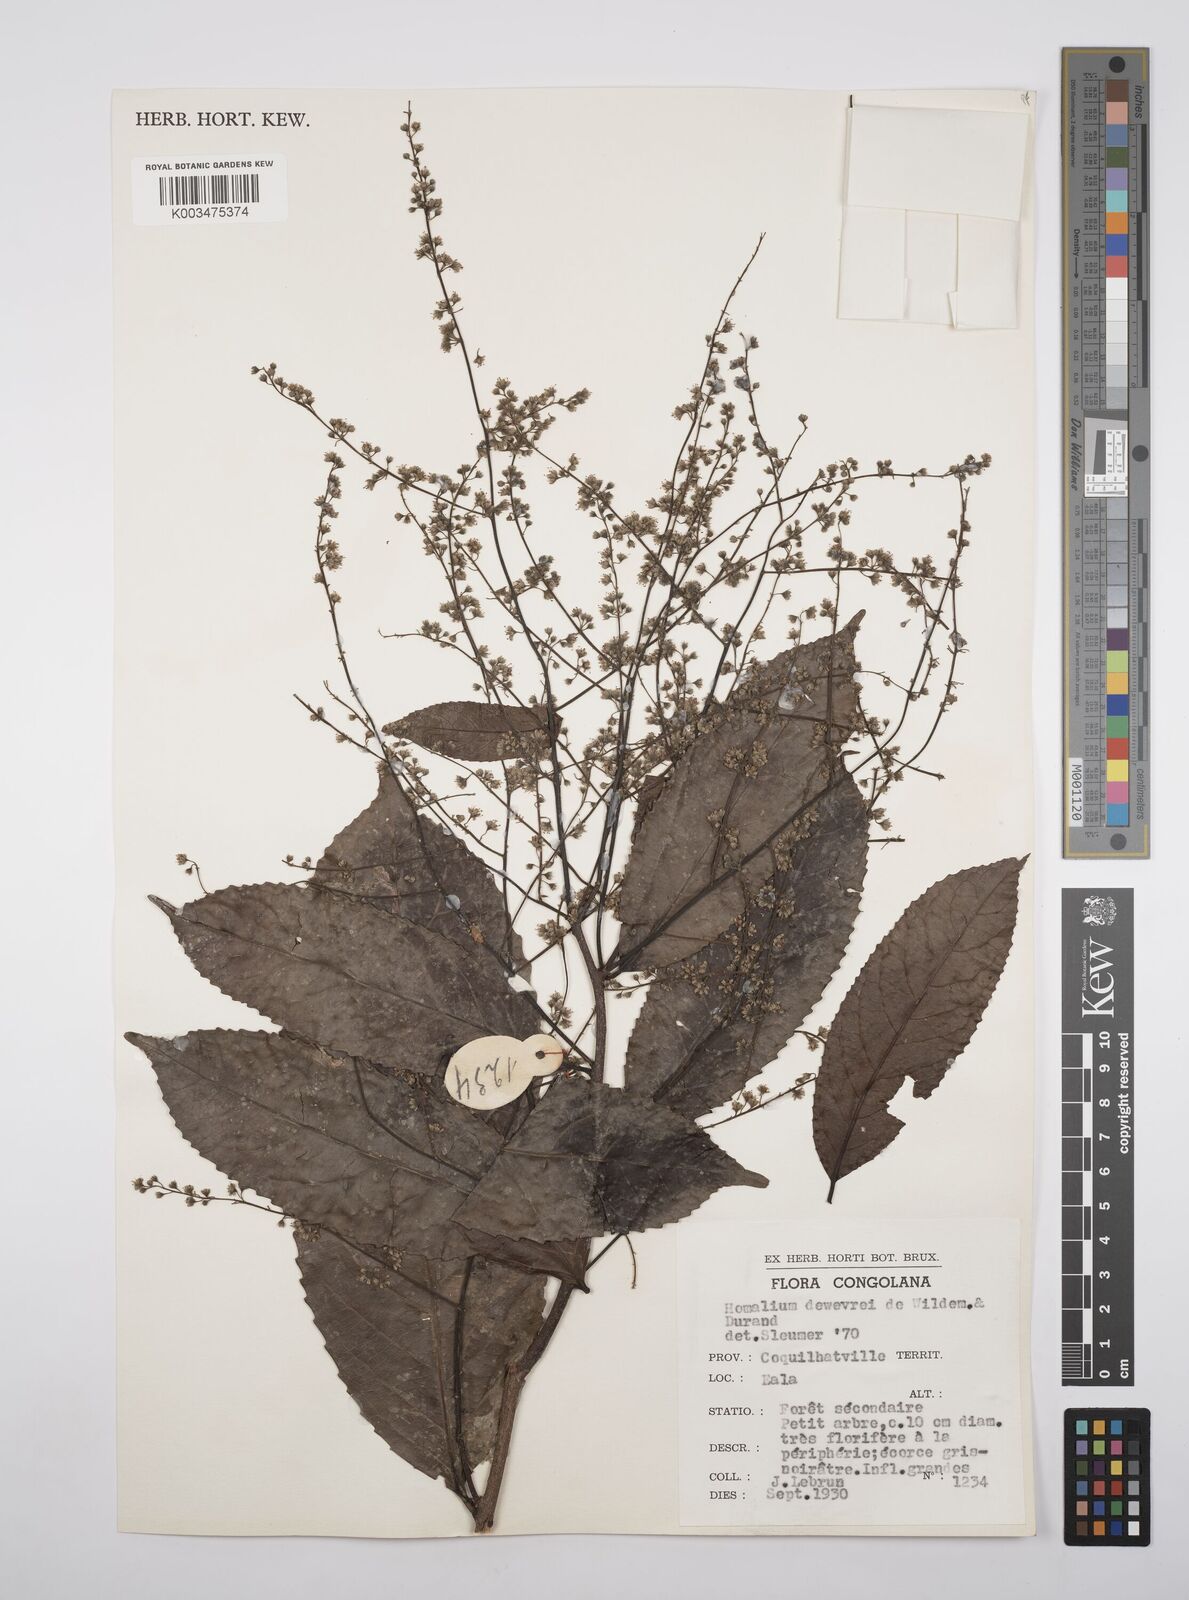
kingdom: Plantae
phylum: Tracheophyta
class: Magnoliopsida
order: Malpighiales
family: Salicaceae
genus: Homalium
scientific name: Homalium dewevrei
